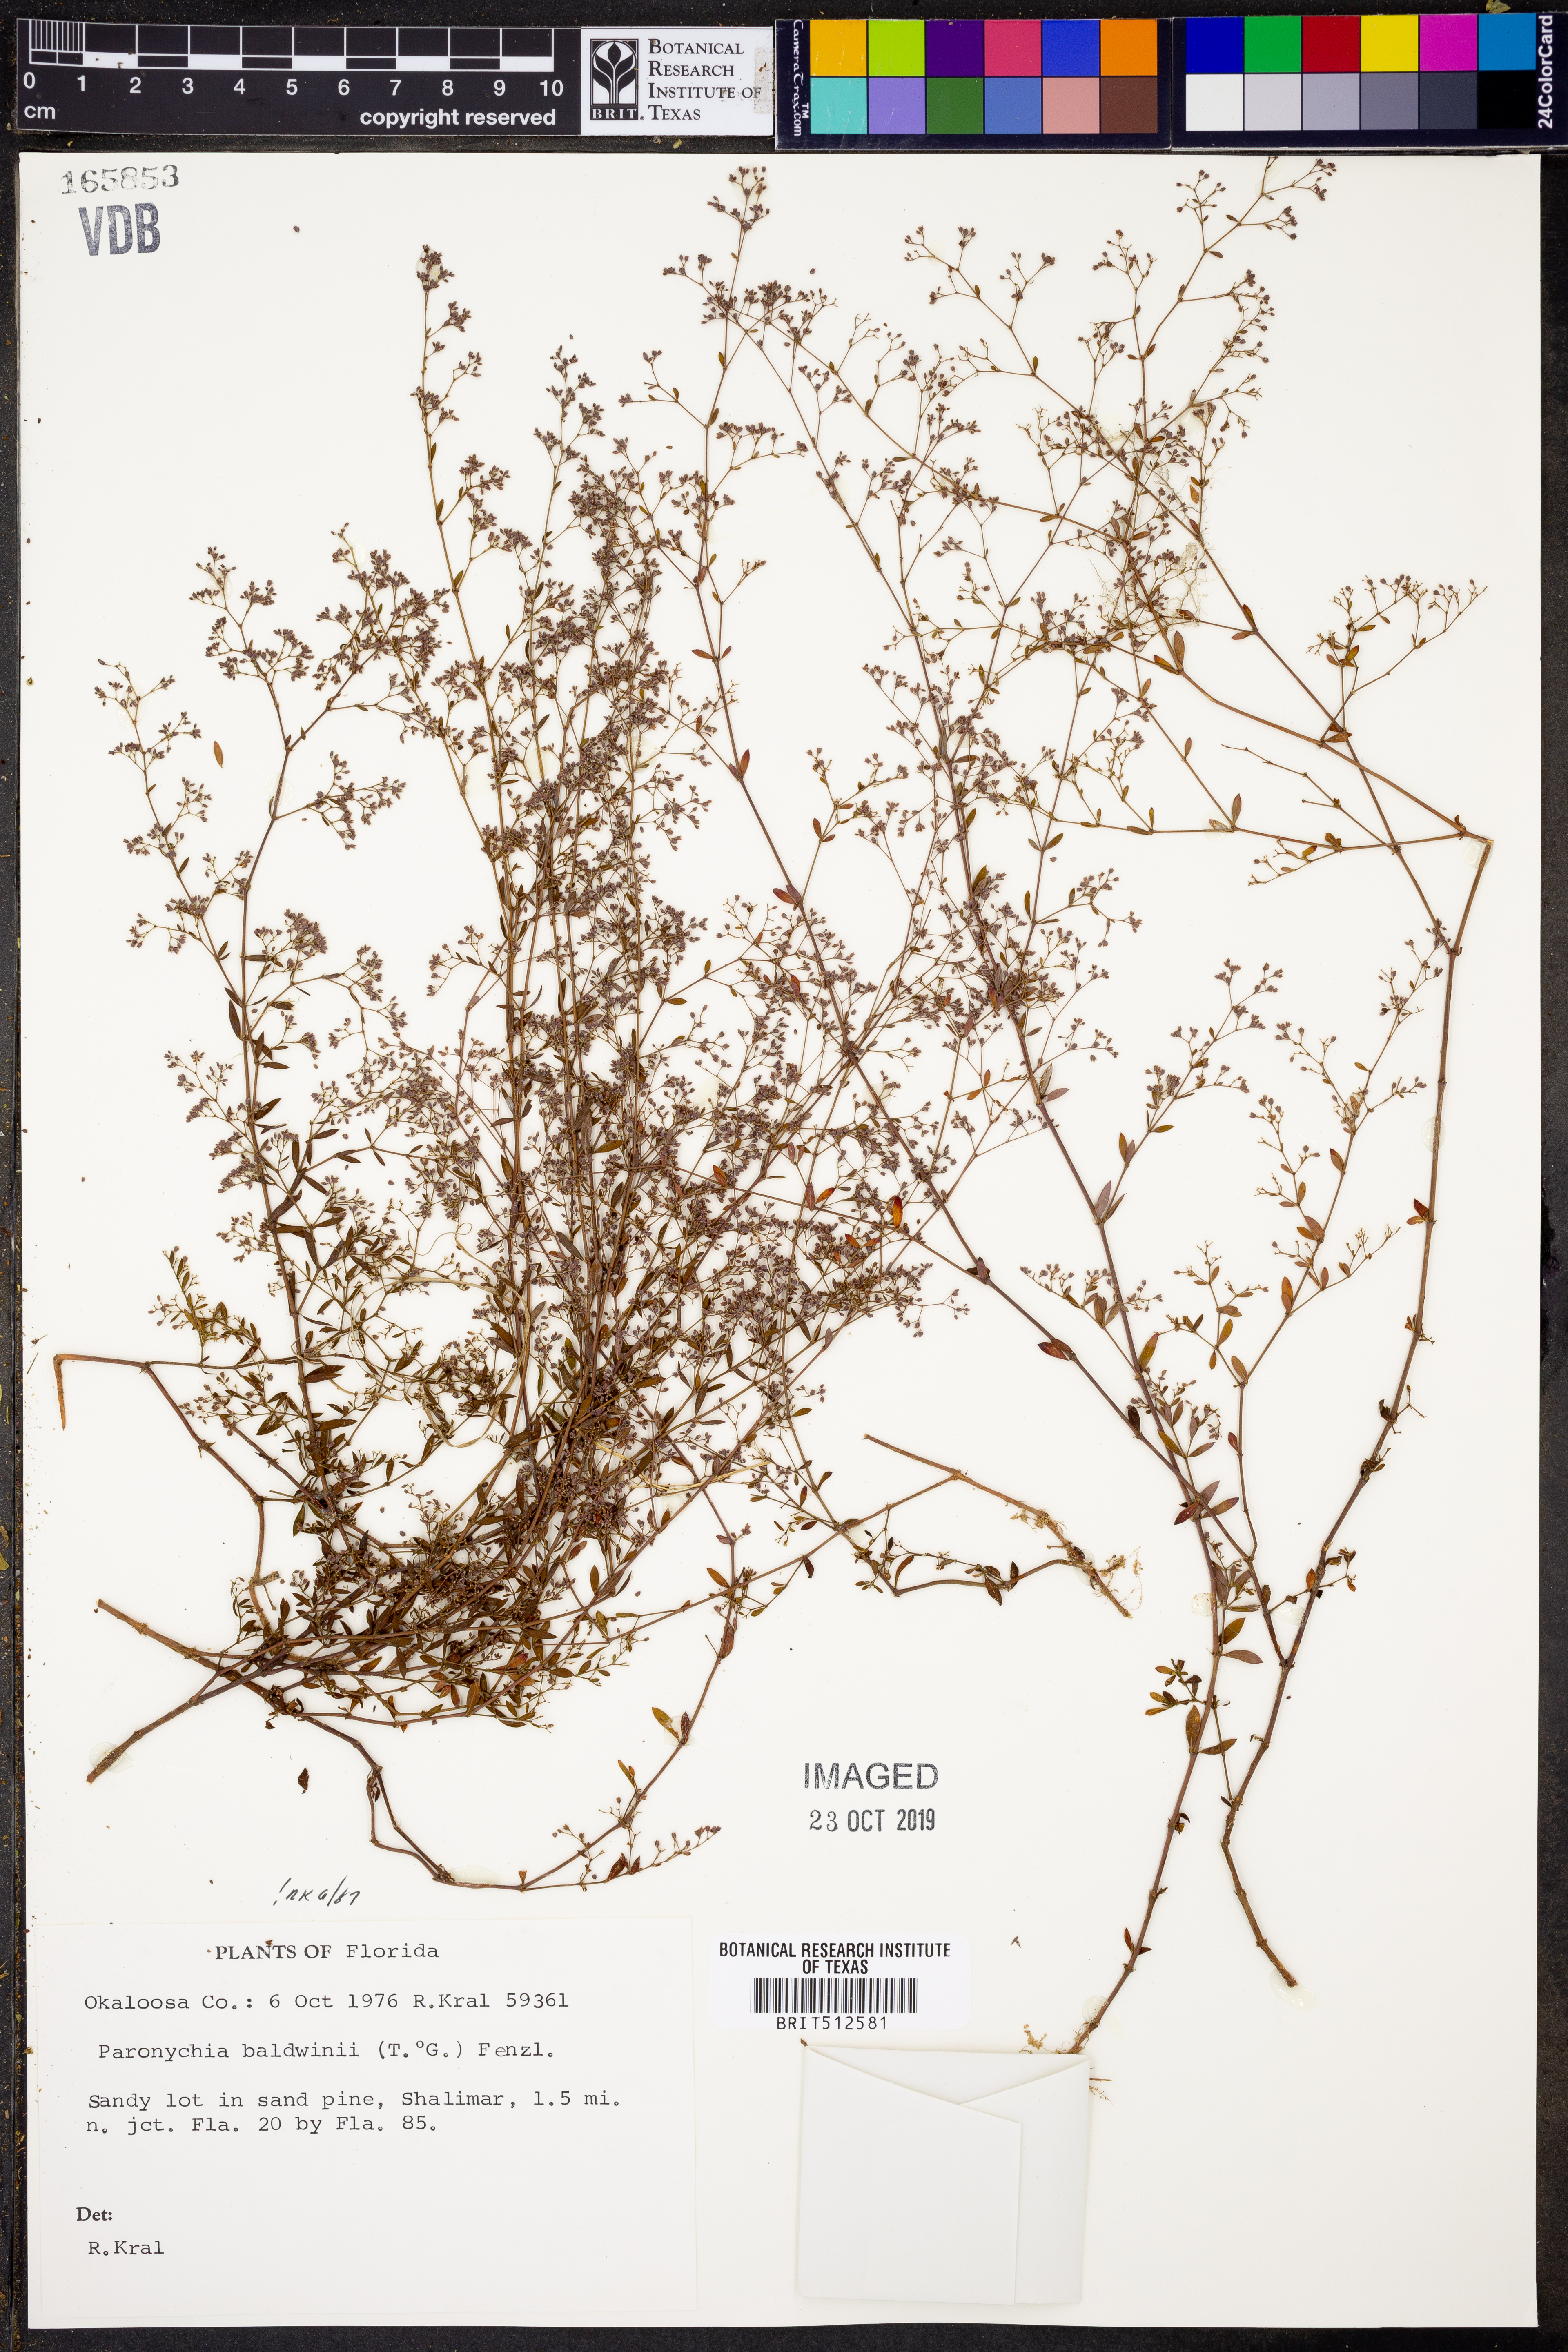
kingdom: Plantae
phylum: Tracheophyta
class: Magnoliopsida
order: Caryophyllales
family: Caryophyllaceae
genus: Paronychia
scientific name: Paronychia baldwinii
